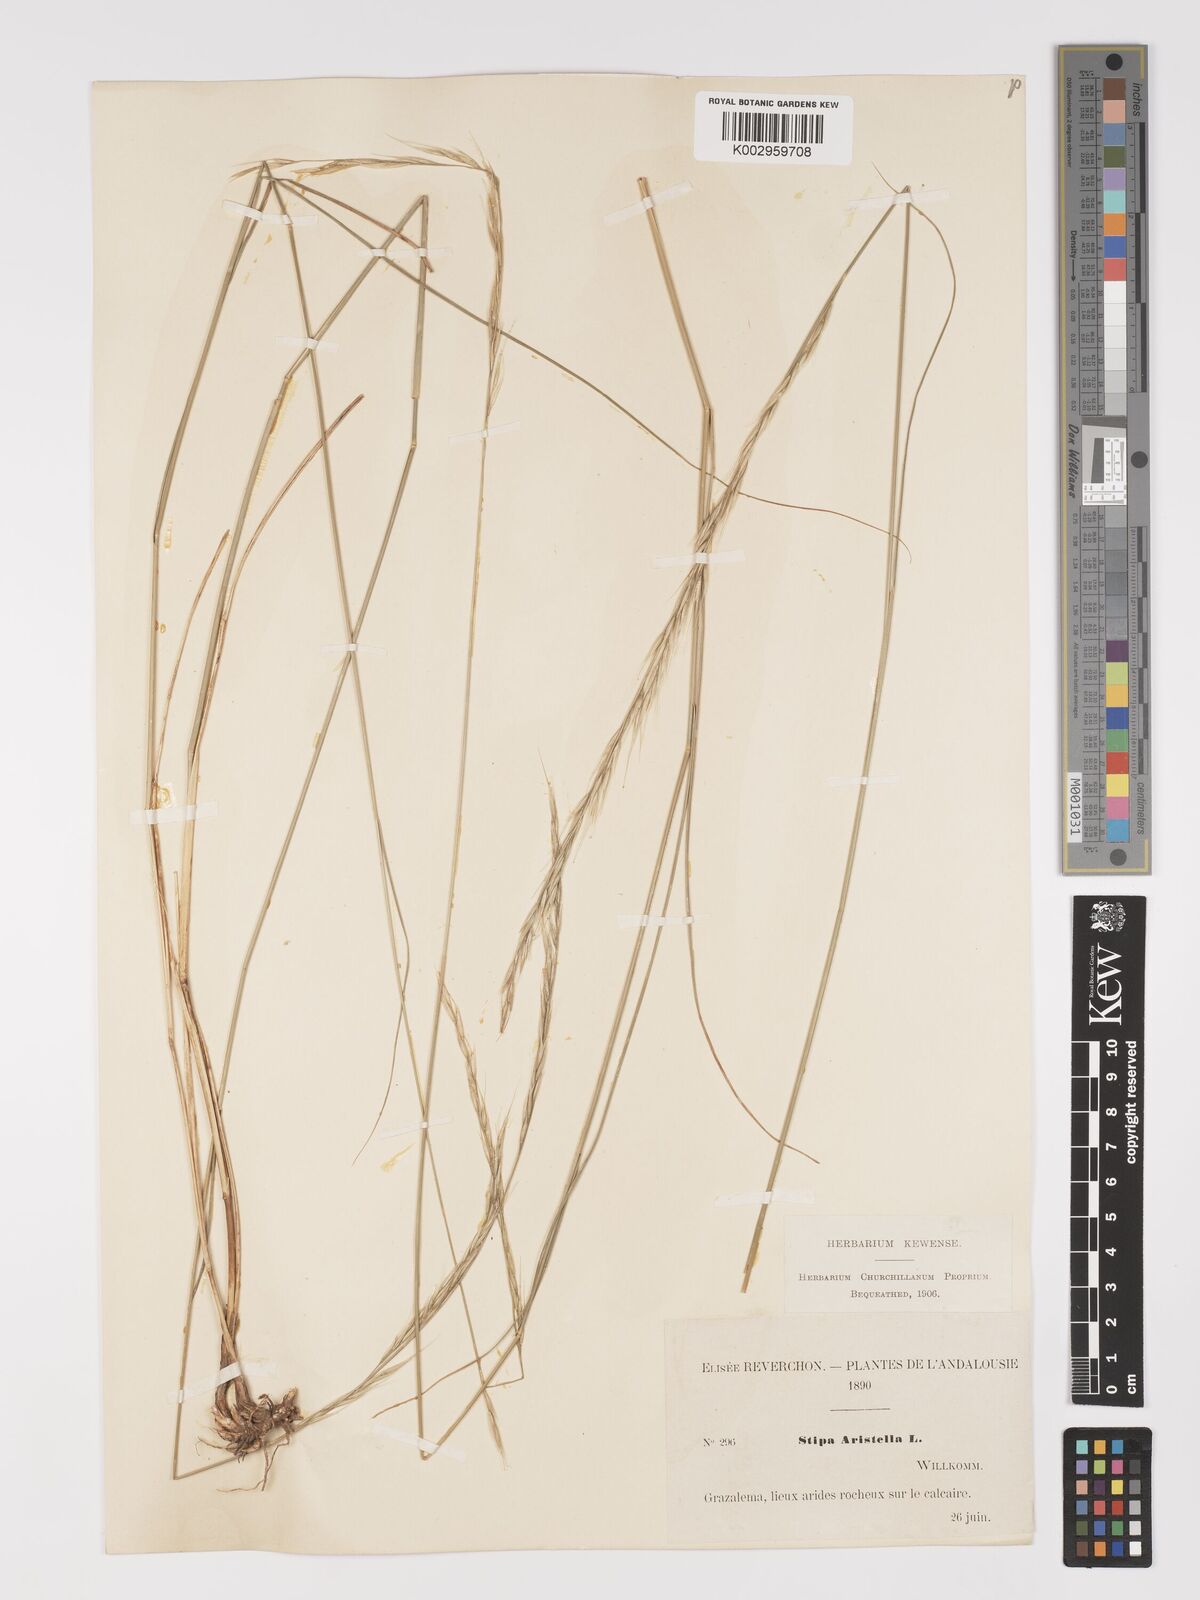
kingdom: Plantae
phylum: Tracheophyta
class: Liliopsida
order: Poales
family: Poaceae
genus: Achnatherum
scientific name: Achnatherum bromoides
